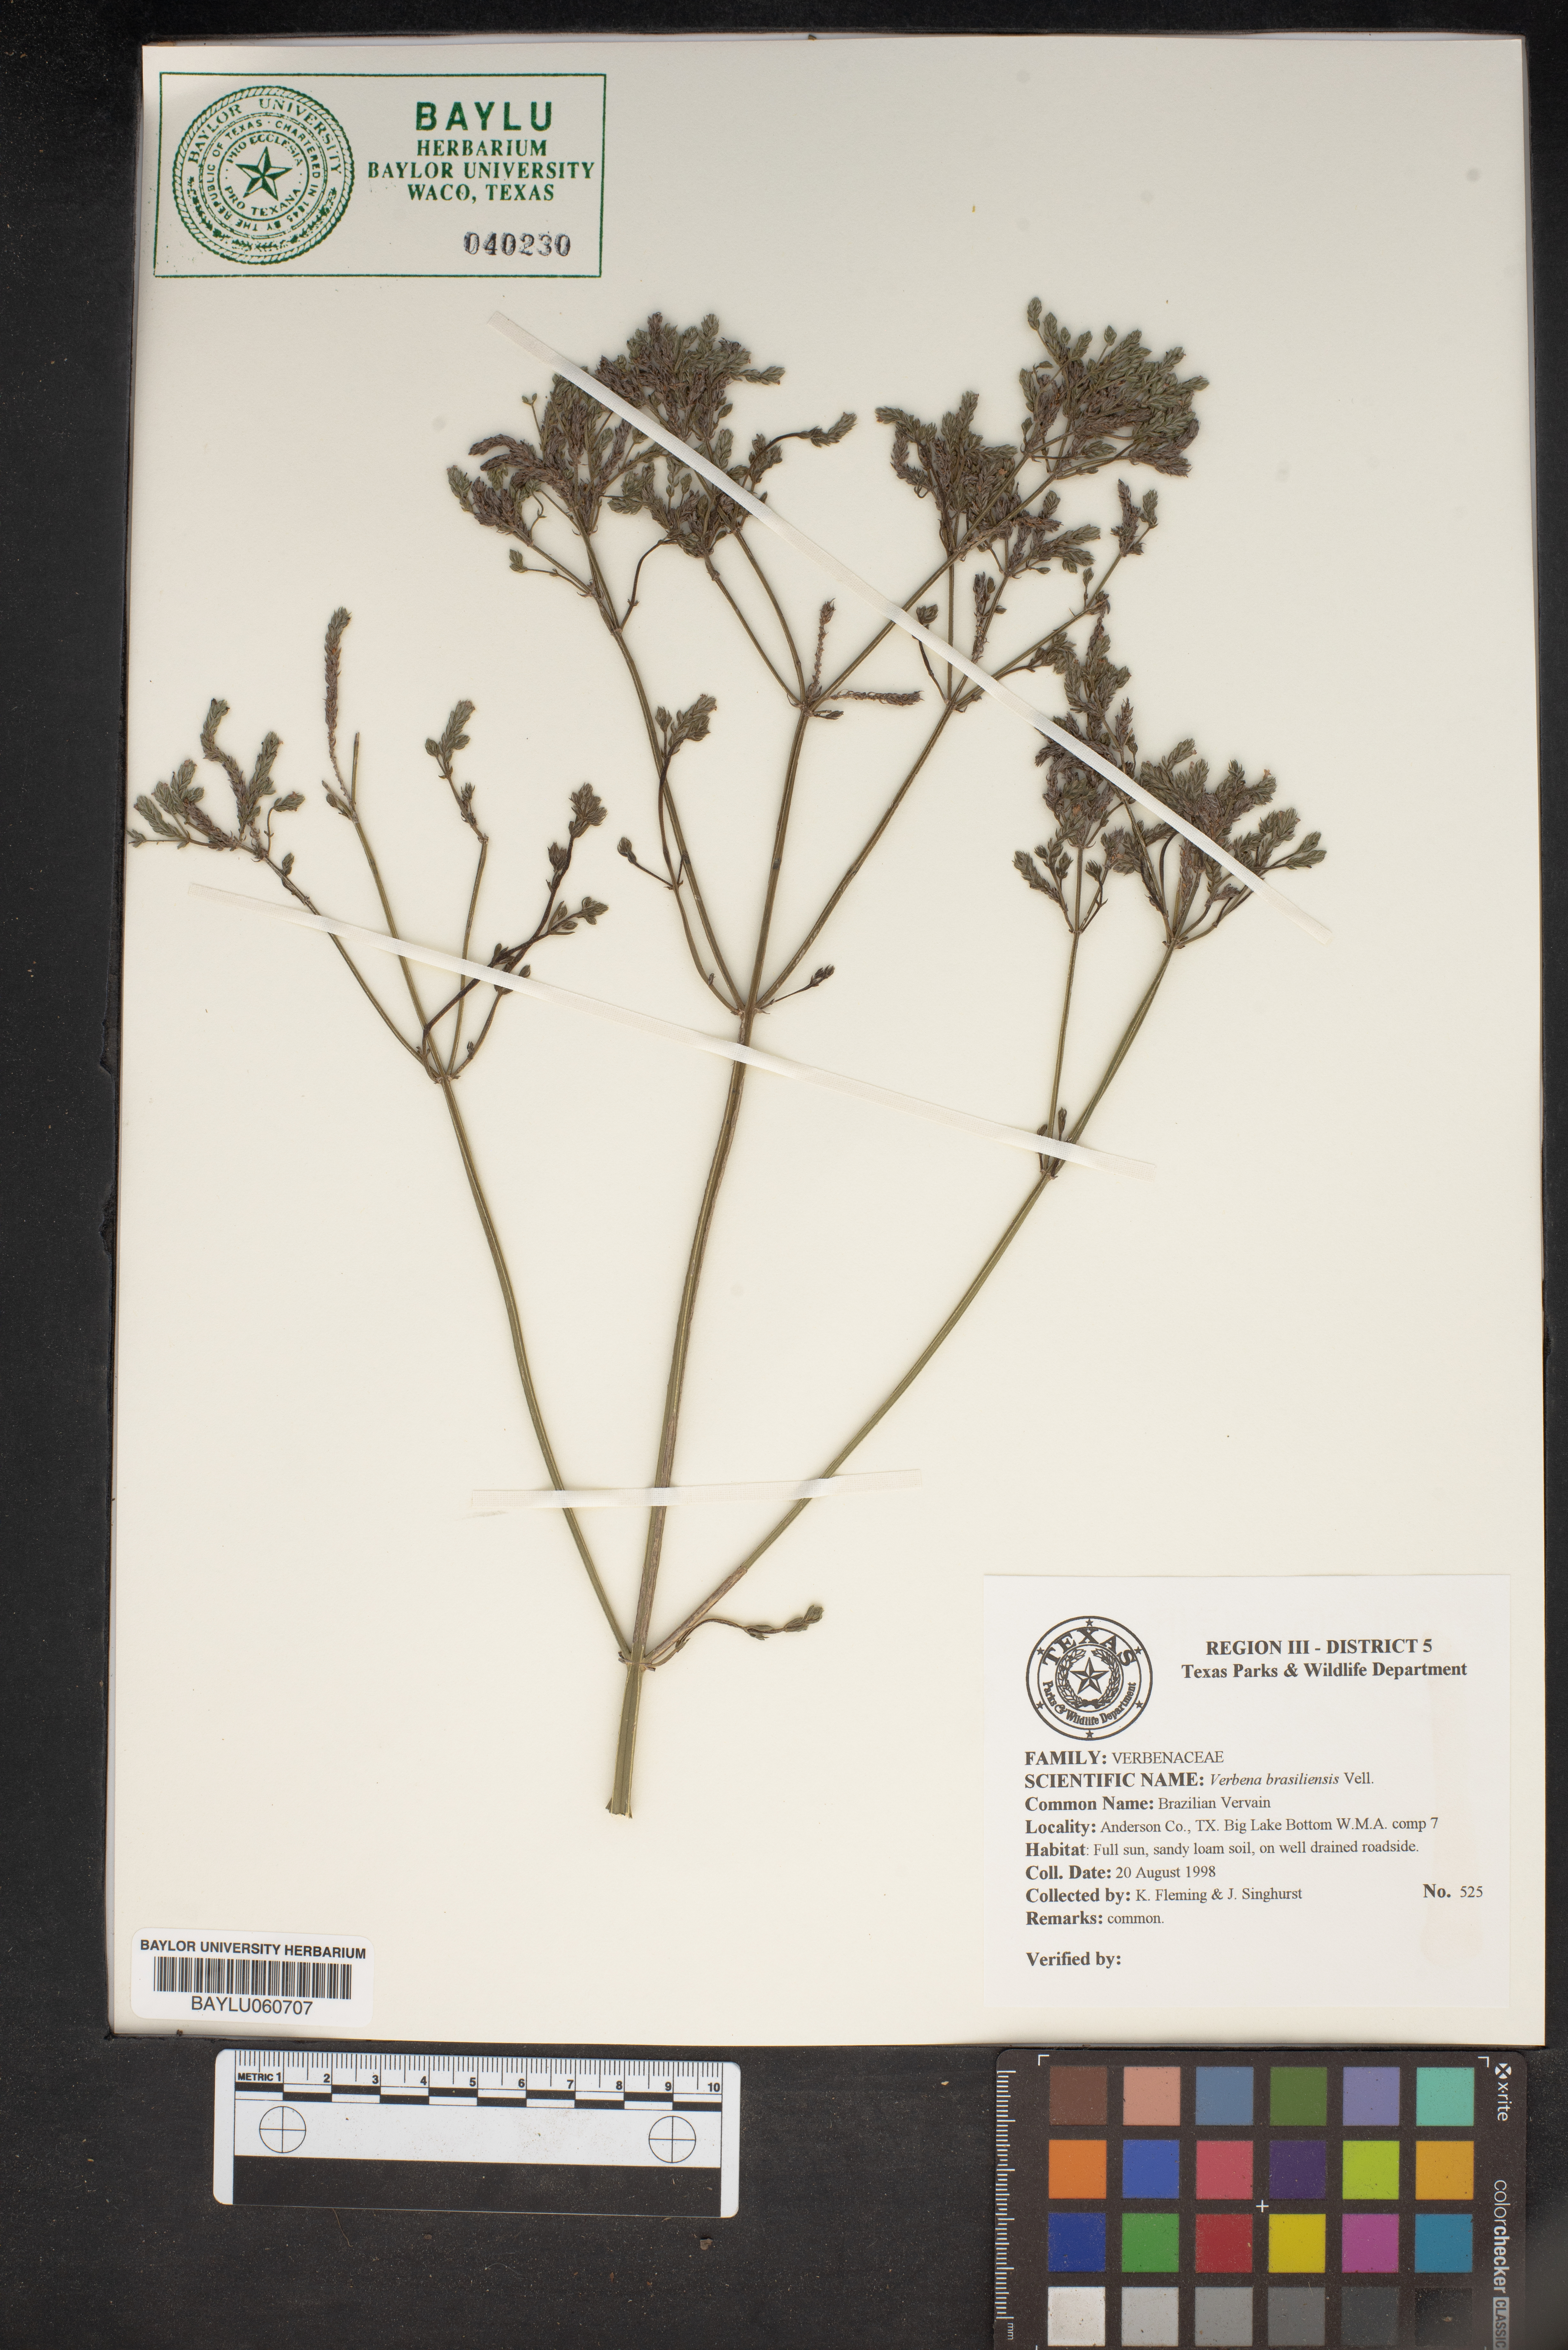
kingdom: Plantae
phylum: Tracheophyta
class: Magnoliopsida
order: Lamiales
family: Verbenaceae
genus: Verbena
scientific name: Verbena brasiliensis
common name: Brazilian vervain
